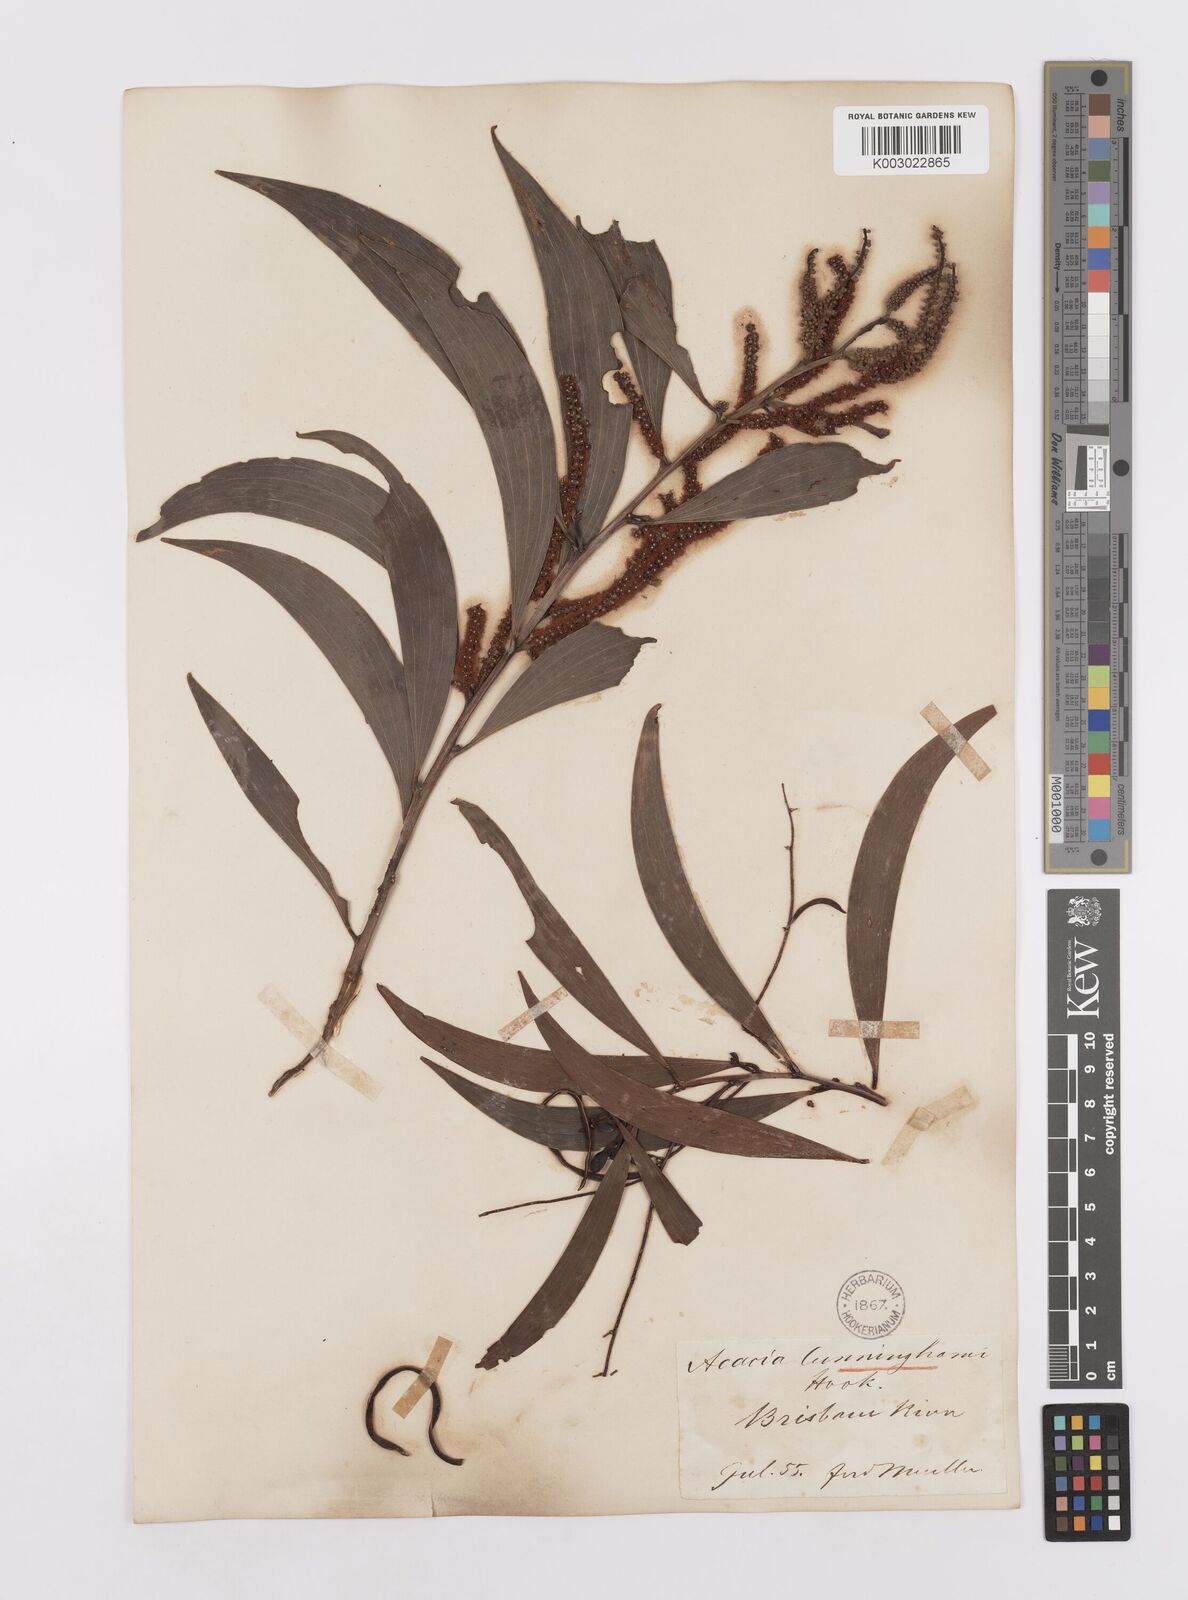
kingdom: Plantae
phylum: Tracheophyta
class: Magnoliopsida
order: Fabales
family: Fabaceae
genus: Acacia
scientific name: Acacia longispicata
